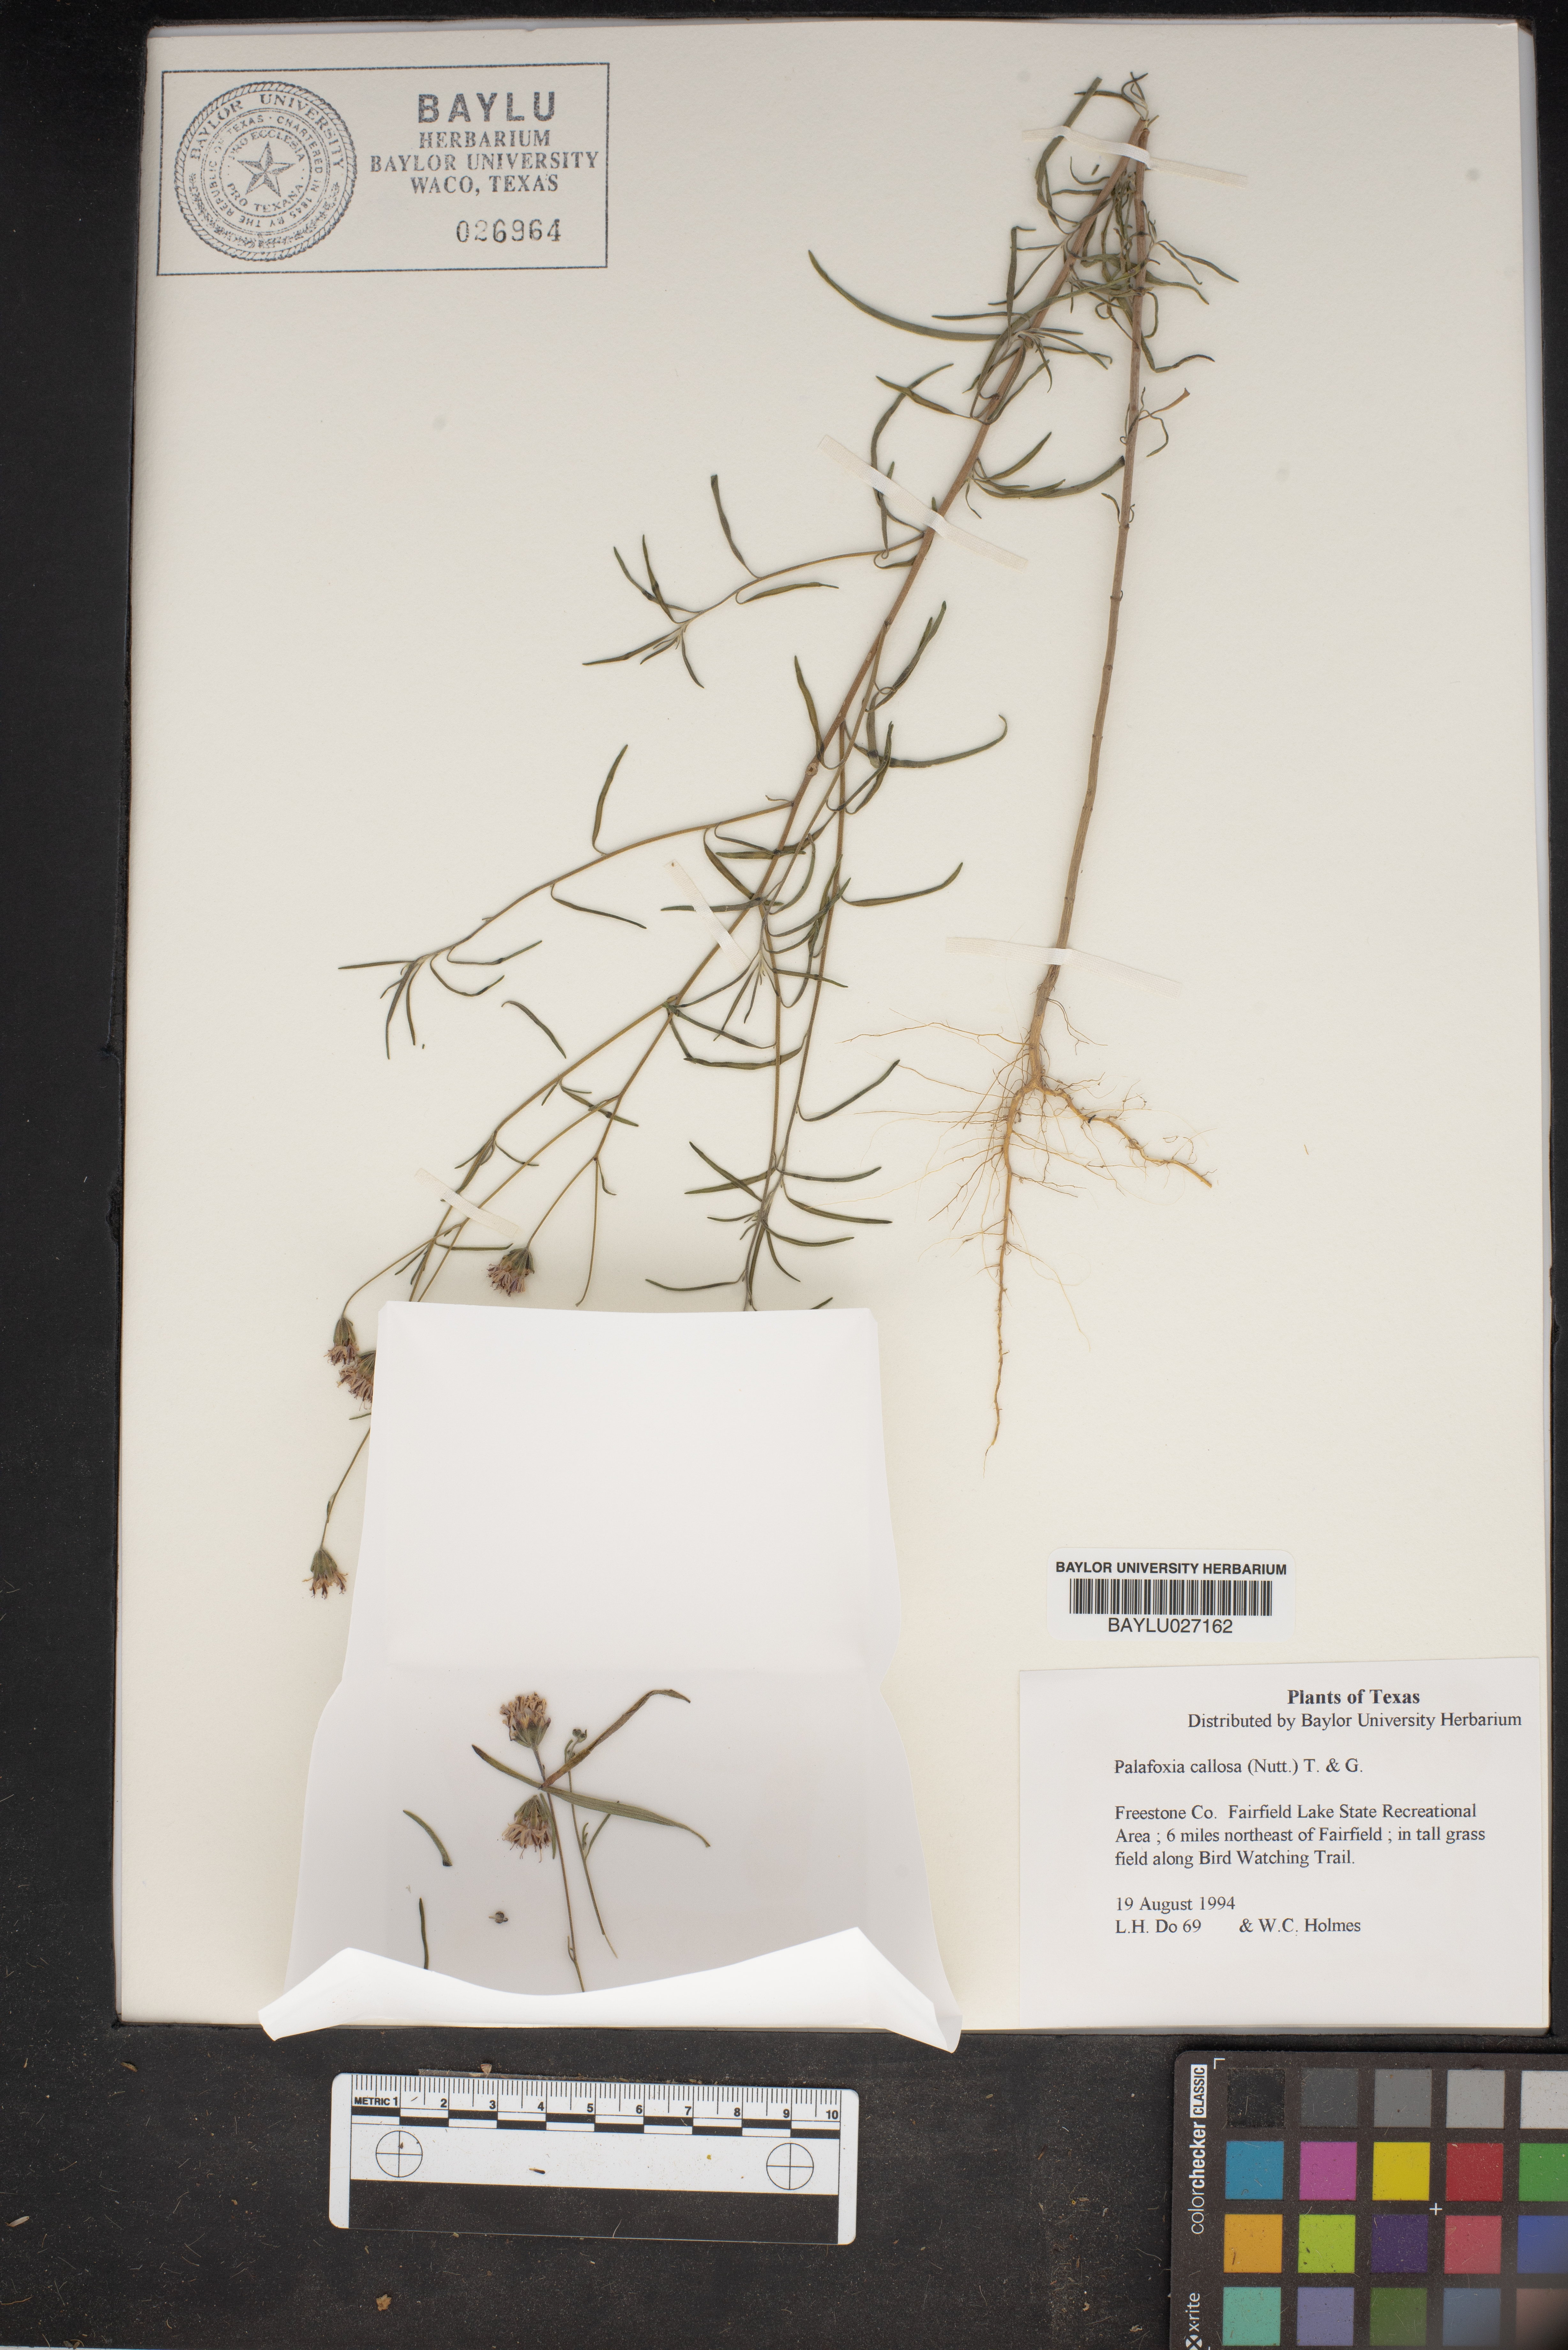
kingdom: Plantae
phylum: Tracheophyta
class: Magnoliopsida
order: Asterales
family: Asteraceae
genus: Palafoxia
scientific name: Palafoxia callosa
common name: Small palafox
